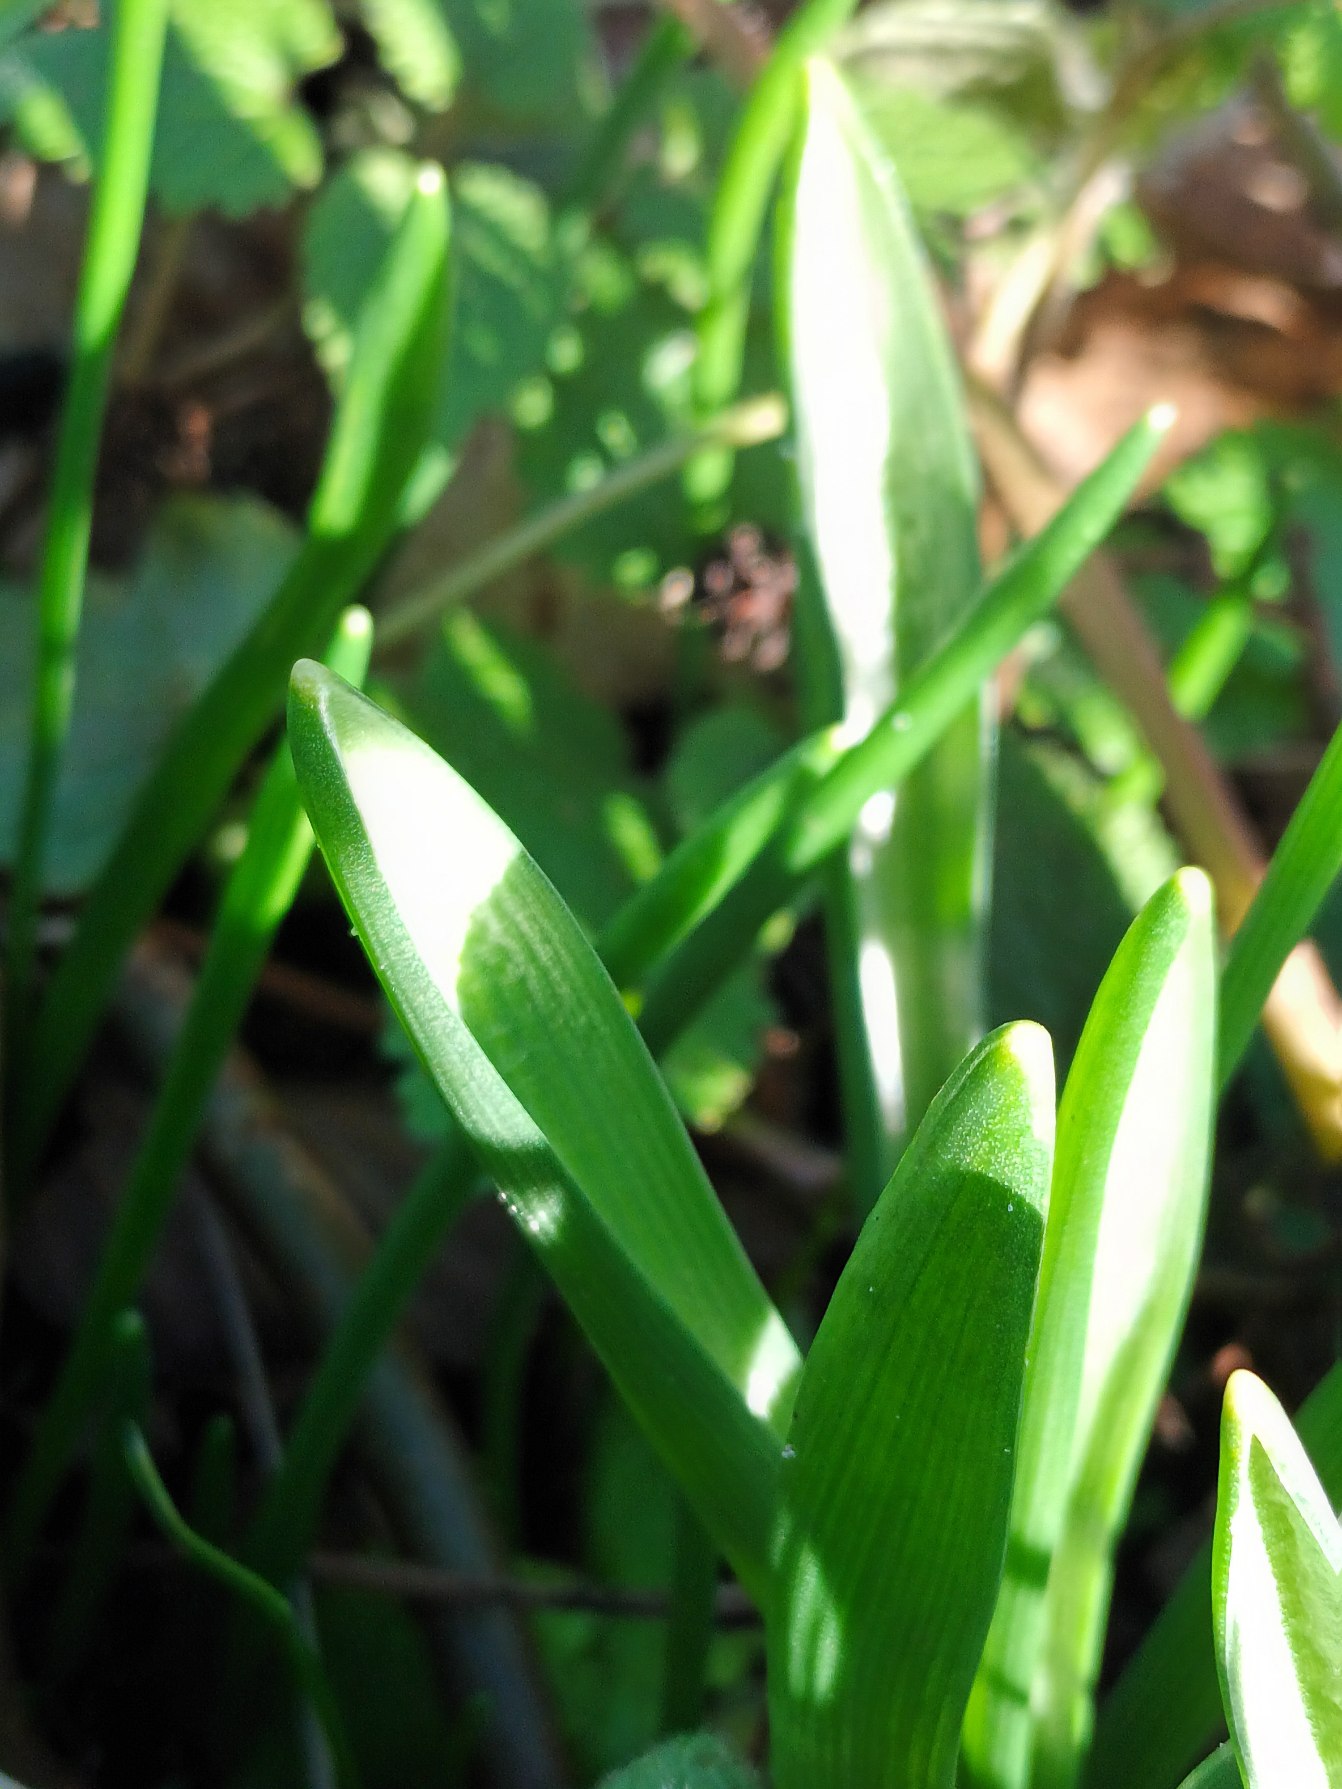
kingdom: Plantae
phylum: Tracheophyta
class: Liliopsida
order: Asparagales
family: Asparagaceae
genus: Ornithogalum
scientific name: Ornithogalum nutans
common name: Nikkende fuglemælk
